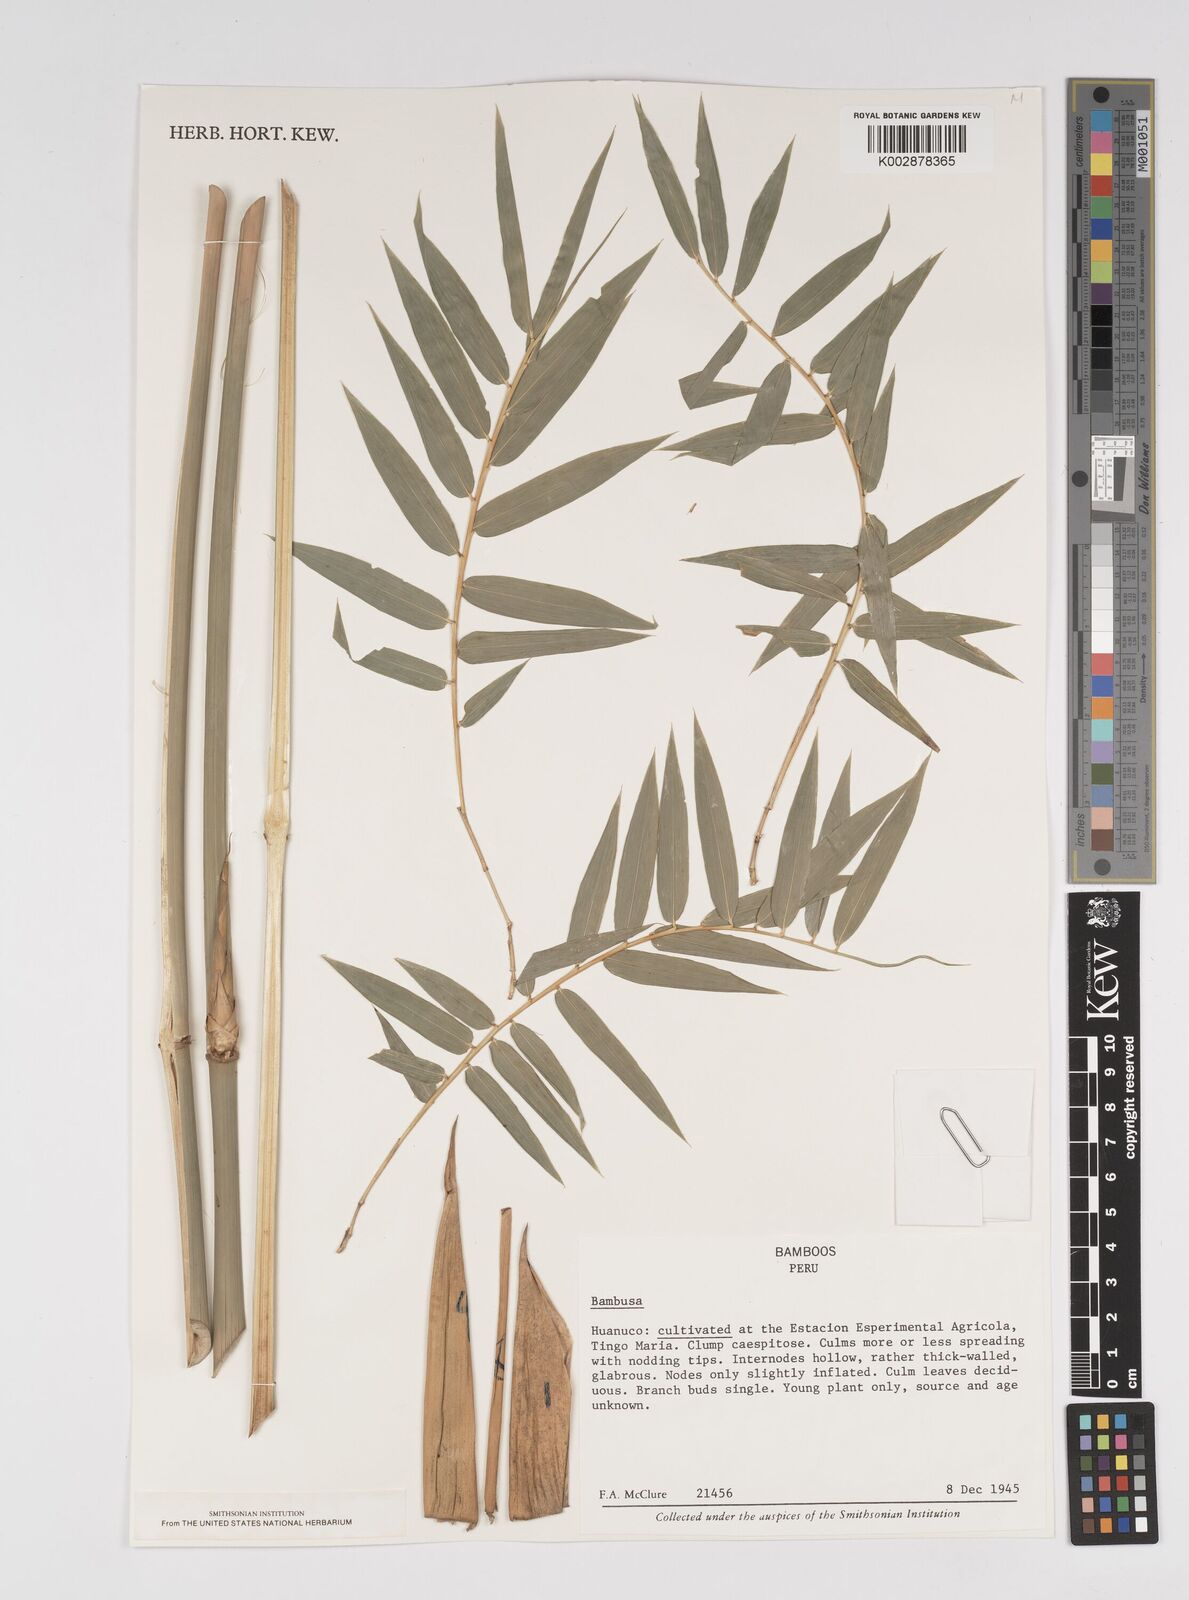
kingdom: Plantae
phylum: Tracheophyta
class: Liliopsida
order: Poales
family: Poaceae
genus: Bambusa
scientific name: Bambusa
